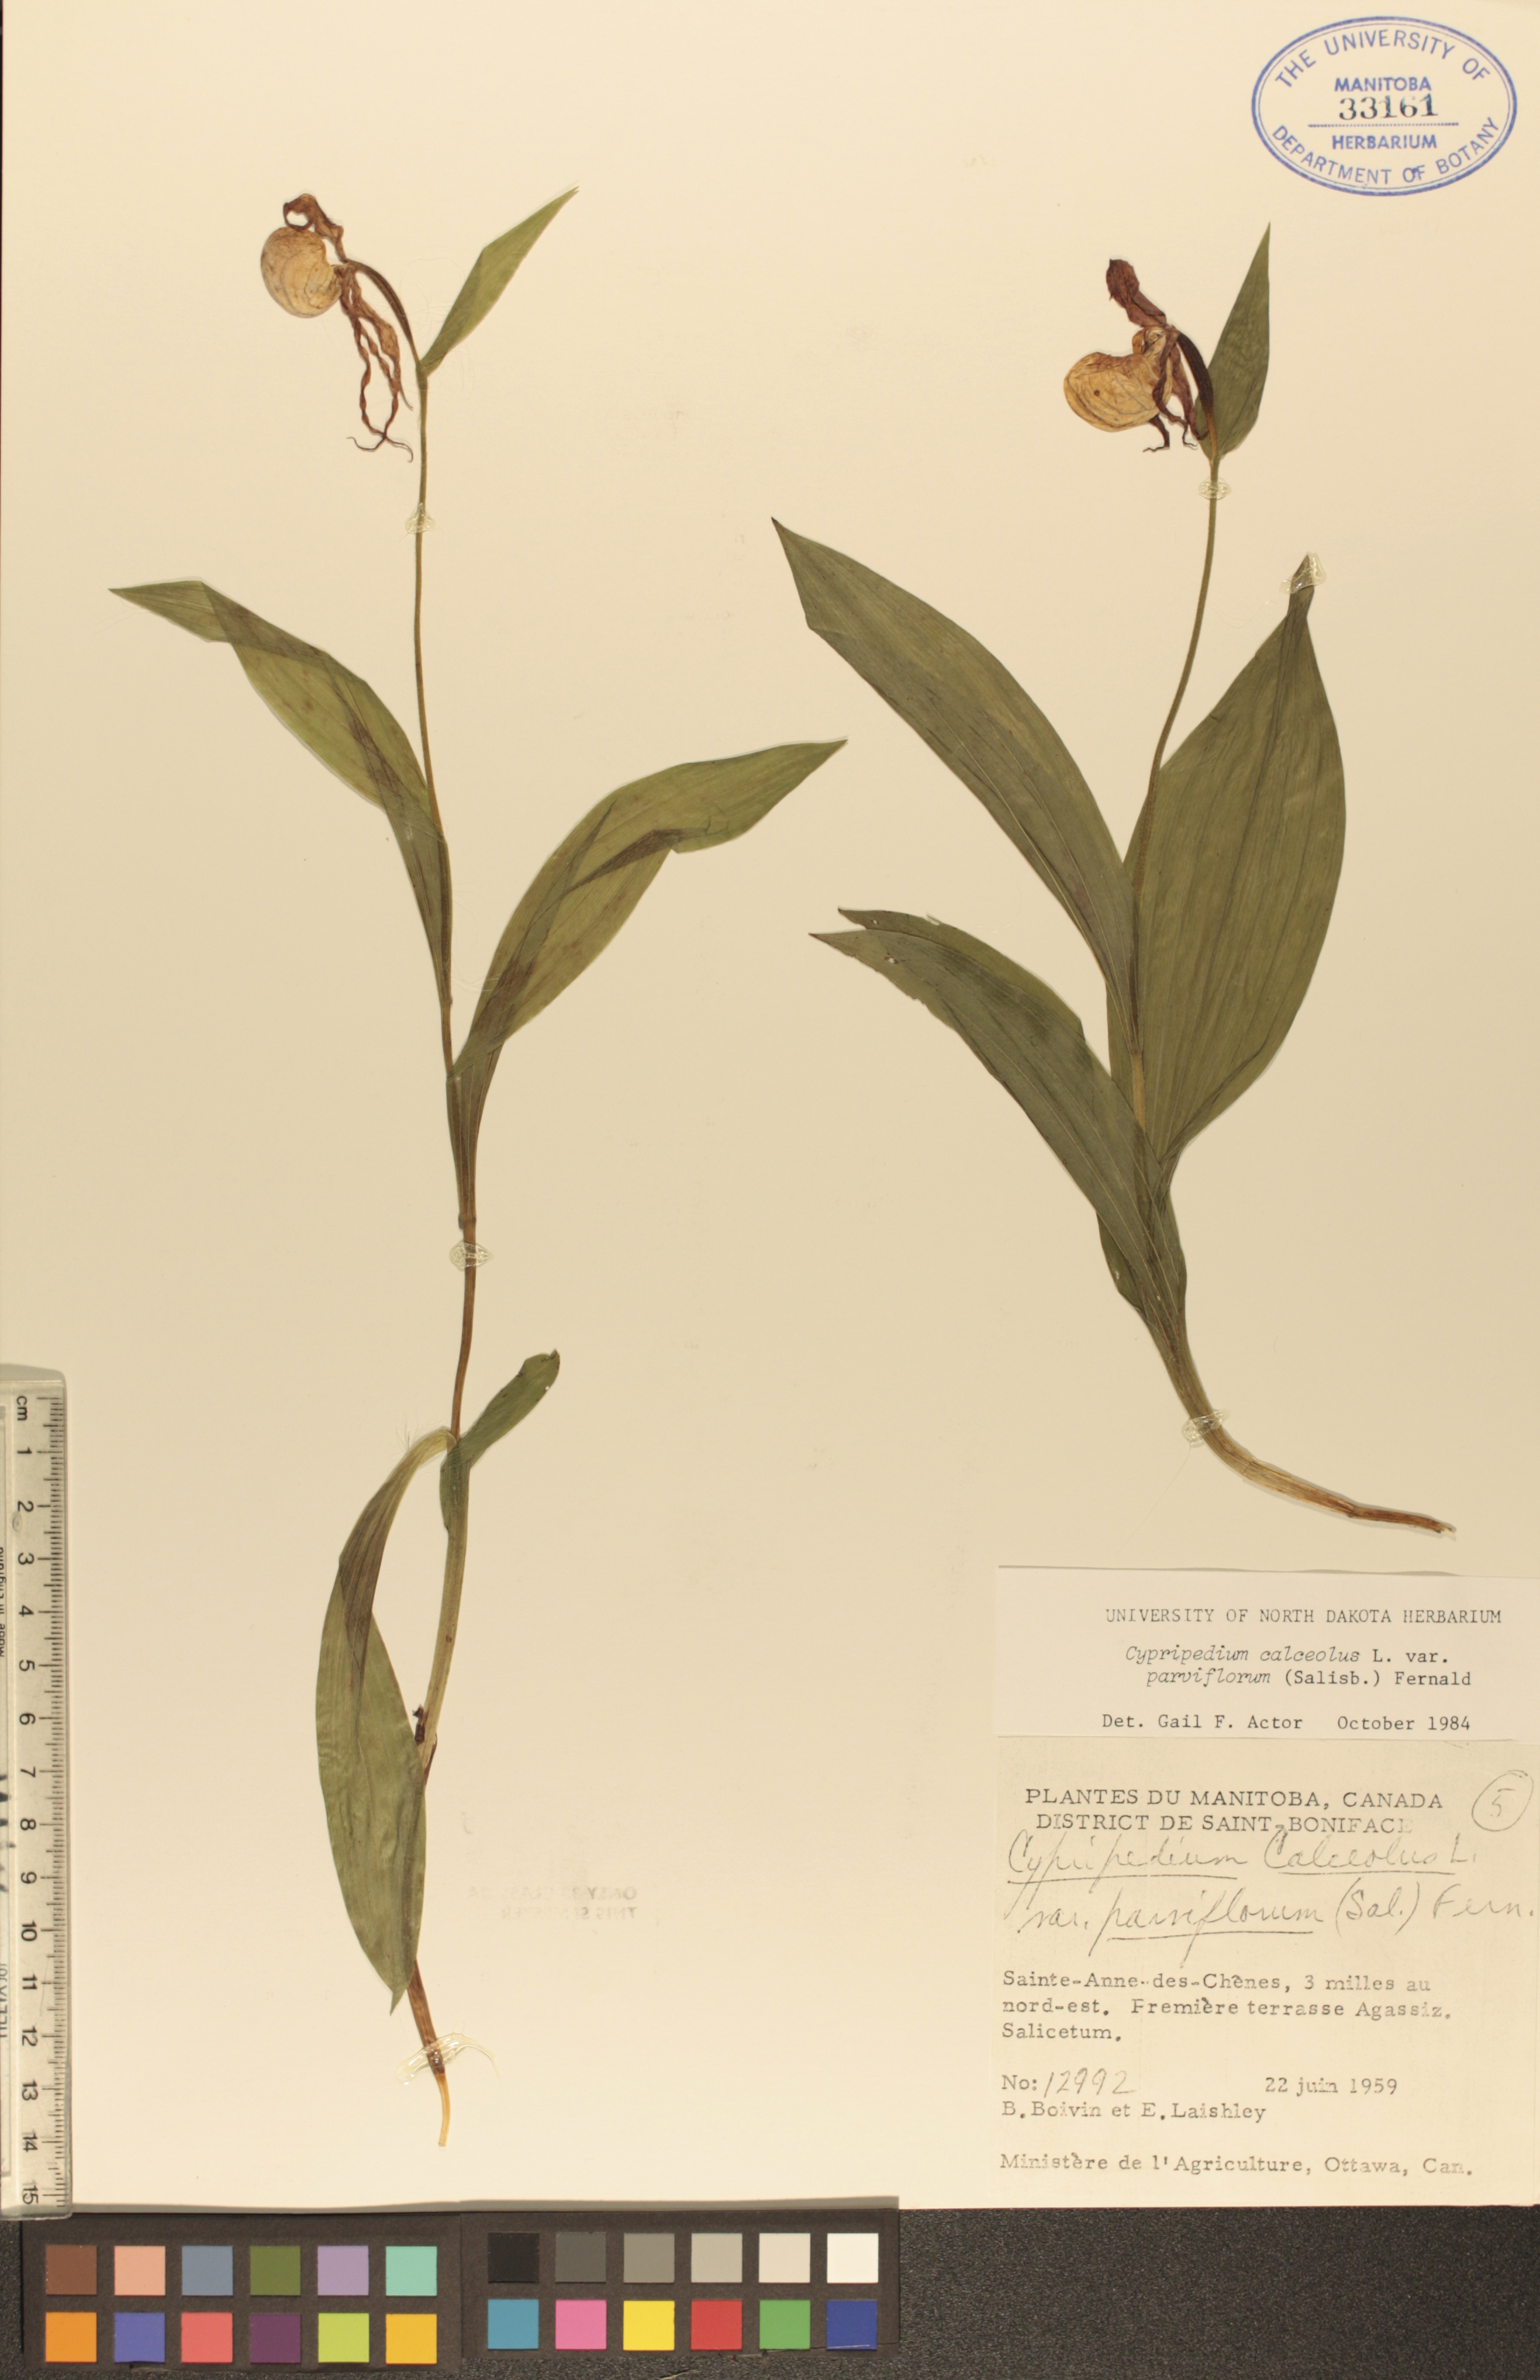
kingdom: Plantae
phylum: Tracheophyta
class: Liliopsida
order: Asparagales
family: Orchidaceae
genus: Cypripedium
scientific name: Cypripedium parviflorum
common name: American yellow lady's-slipper
